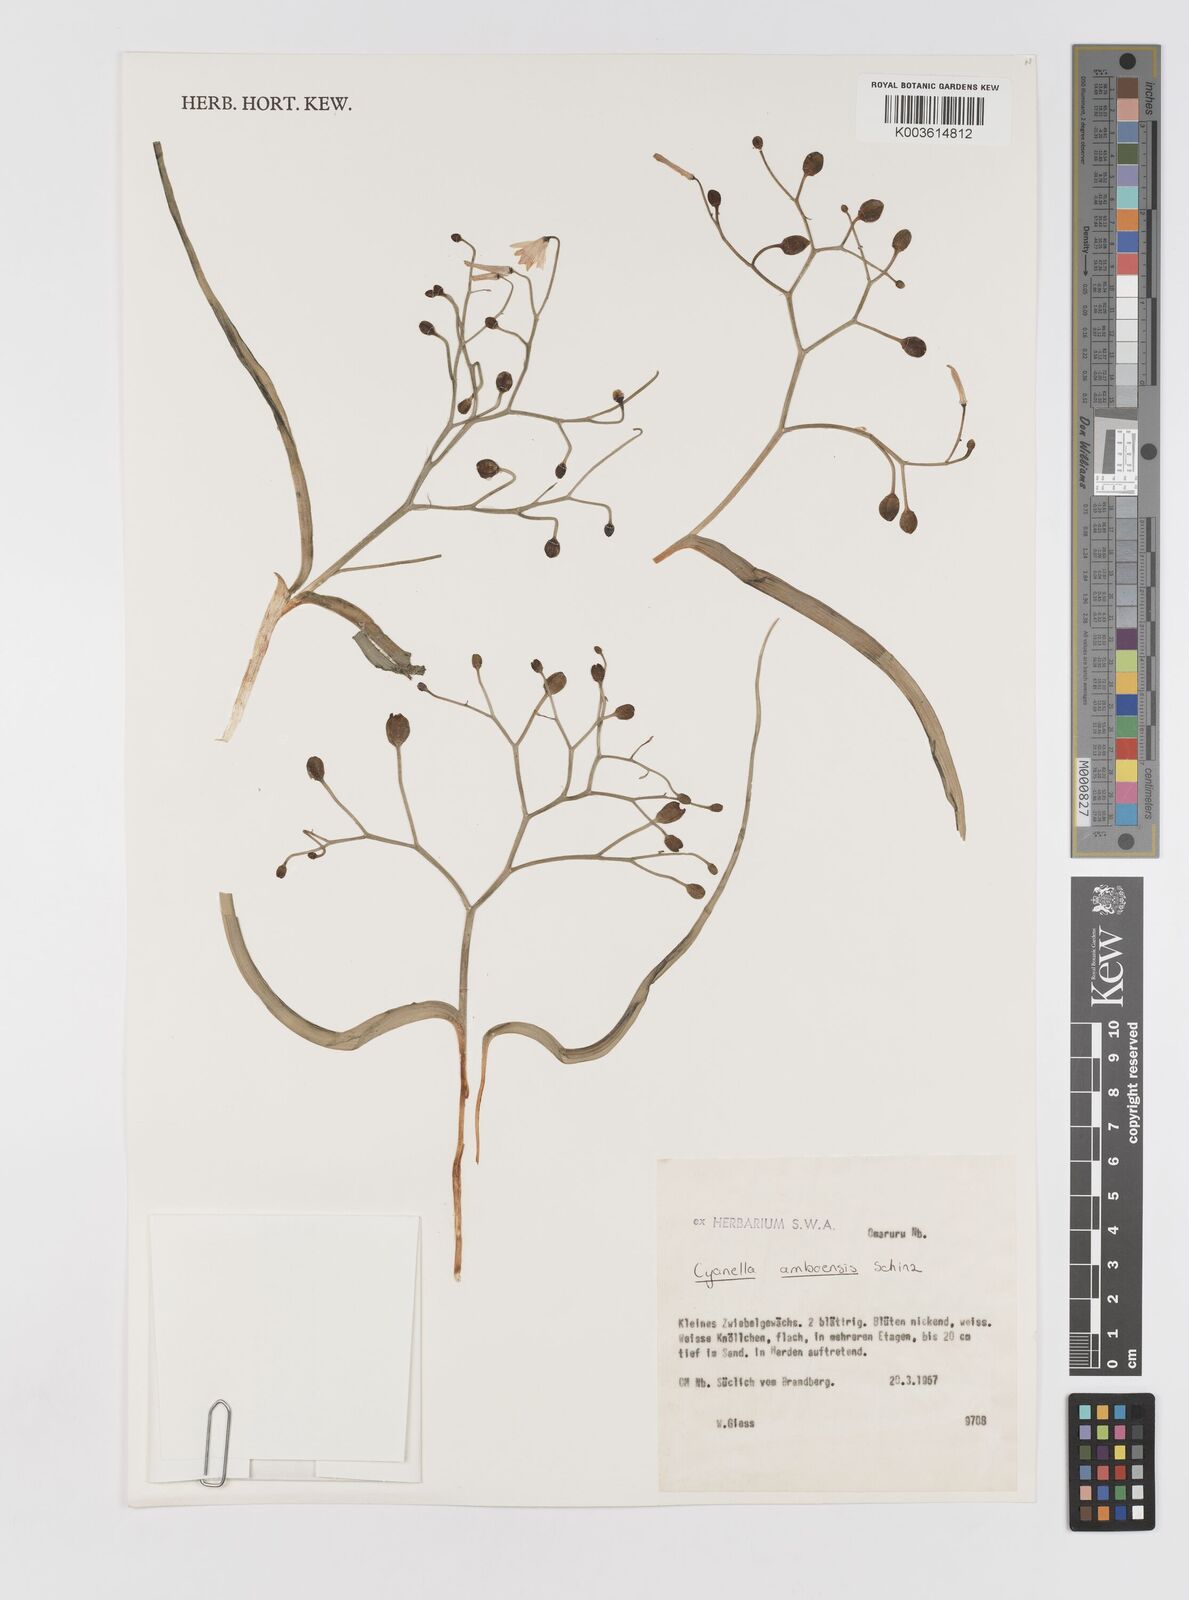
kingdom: Plantae
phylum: Tracheophyta
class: Liliopsida
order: Asparagales
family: Tecophilaeaceae
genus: Eremiolirion
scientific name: Eremiolirion amboense
